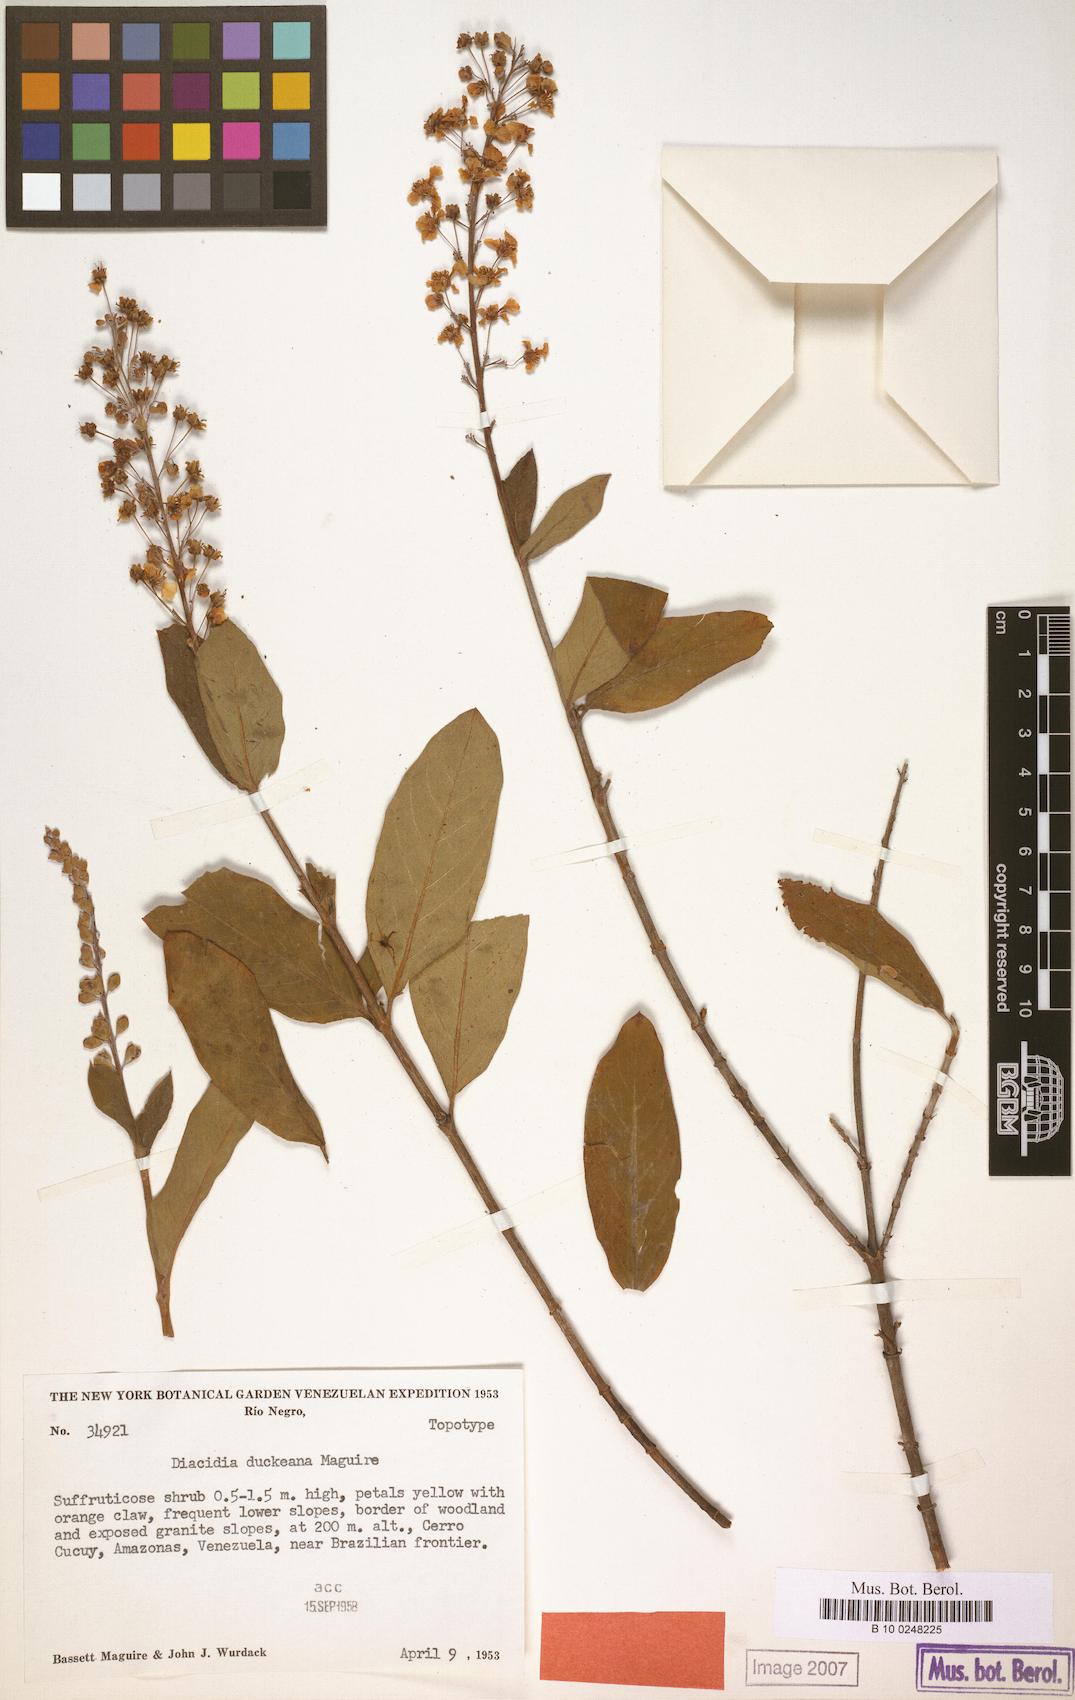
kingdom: Plantae
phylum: Tracheophyta
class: Magnoliopsida
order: Malpighiales
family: Malpighiaceae
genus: Diacidia
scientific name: Diacidia galphimioides
